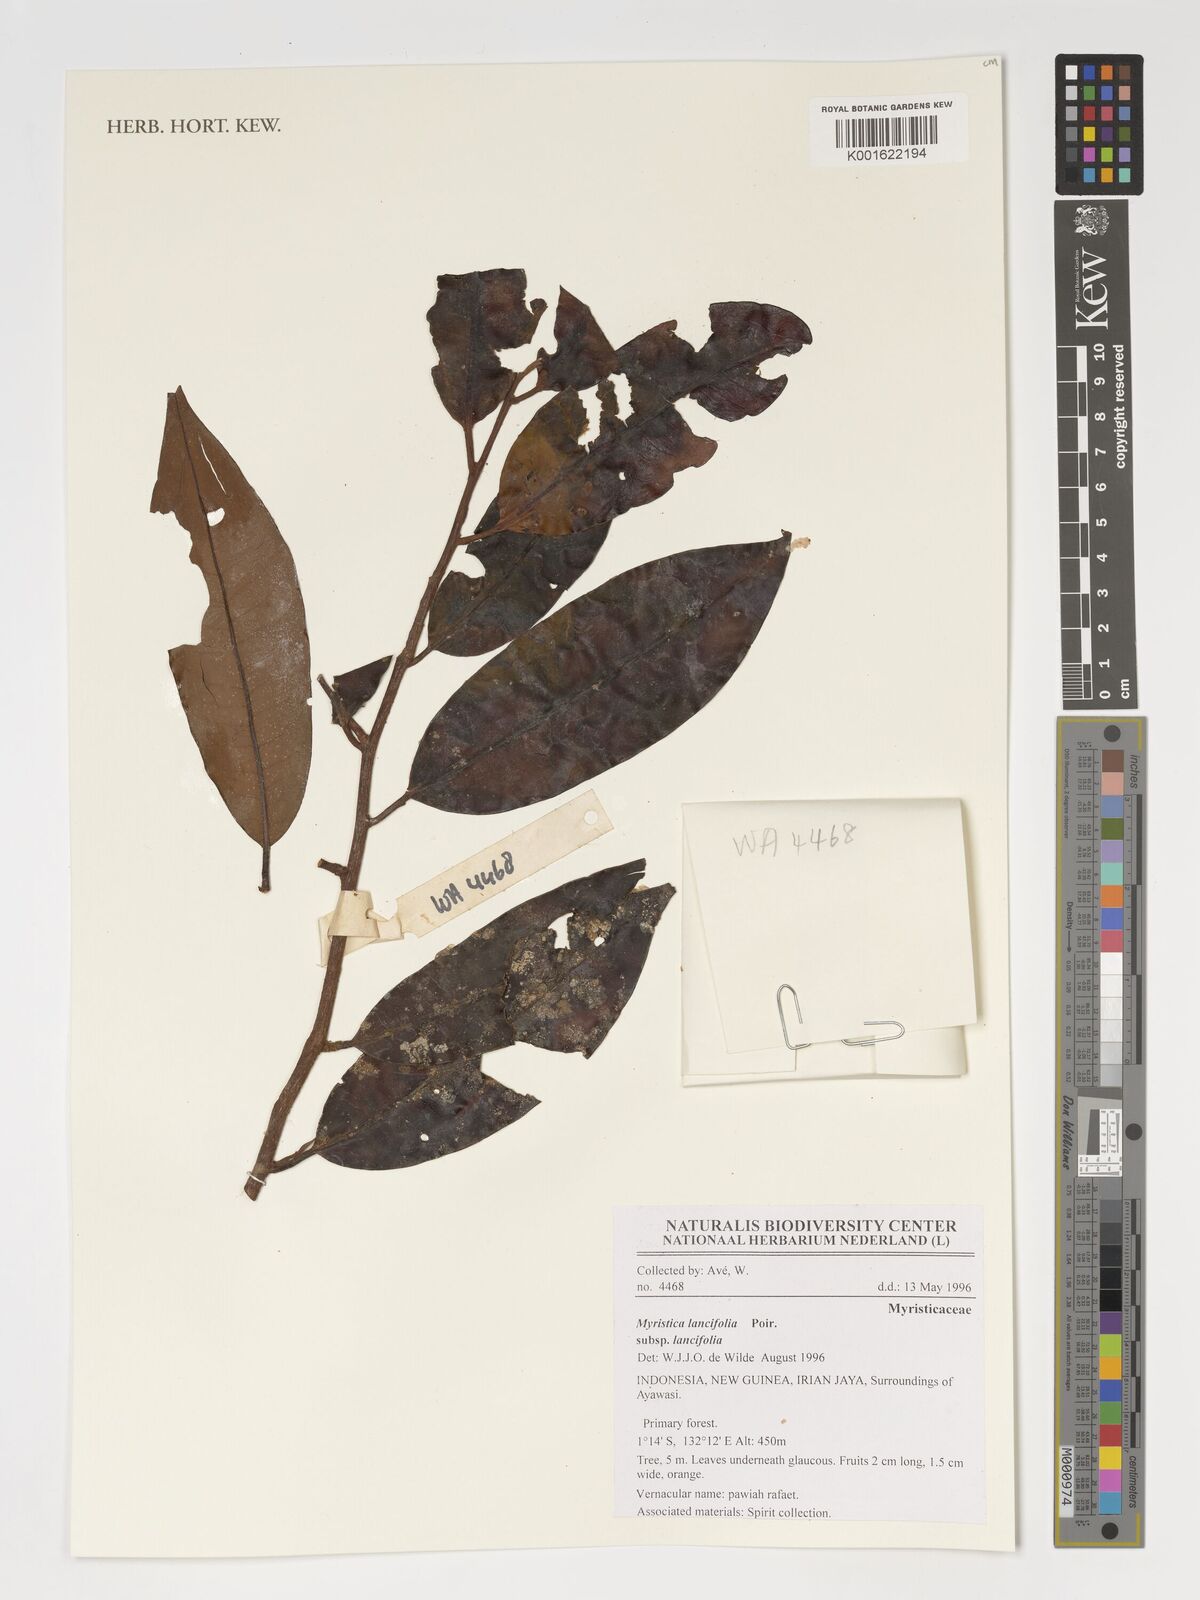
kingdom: Plantae
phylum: Tracheophyta
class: Magnoliopsida
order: Magnoliales
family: Myristicaceae
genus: Myristica
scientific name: Myristica lancifolia
